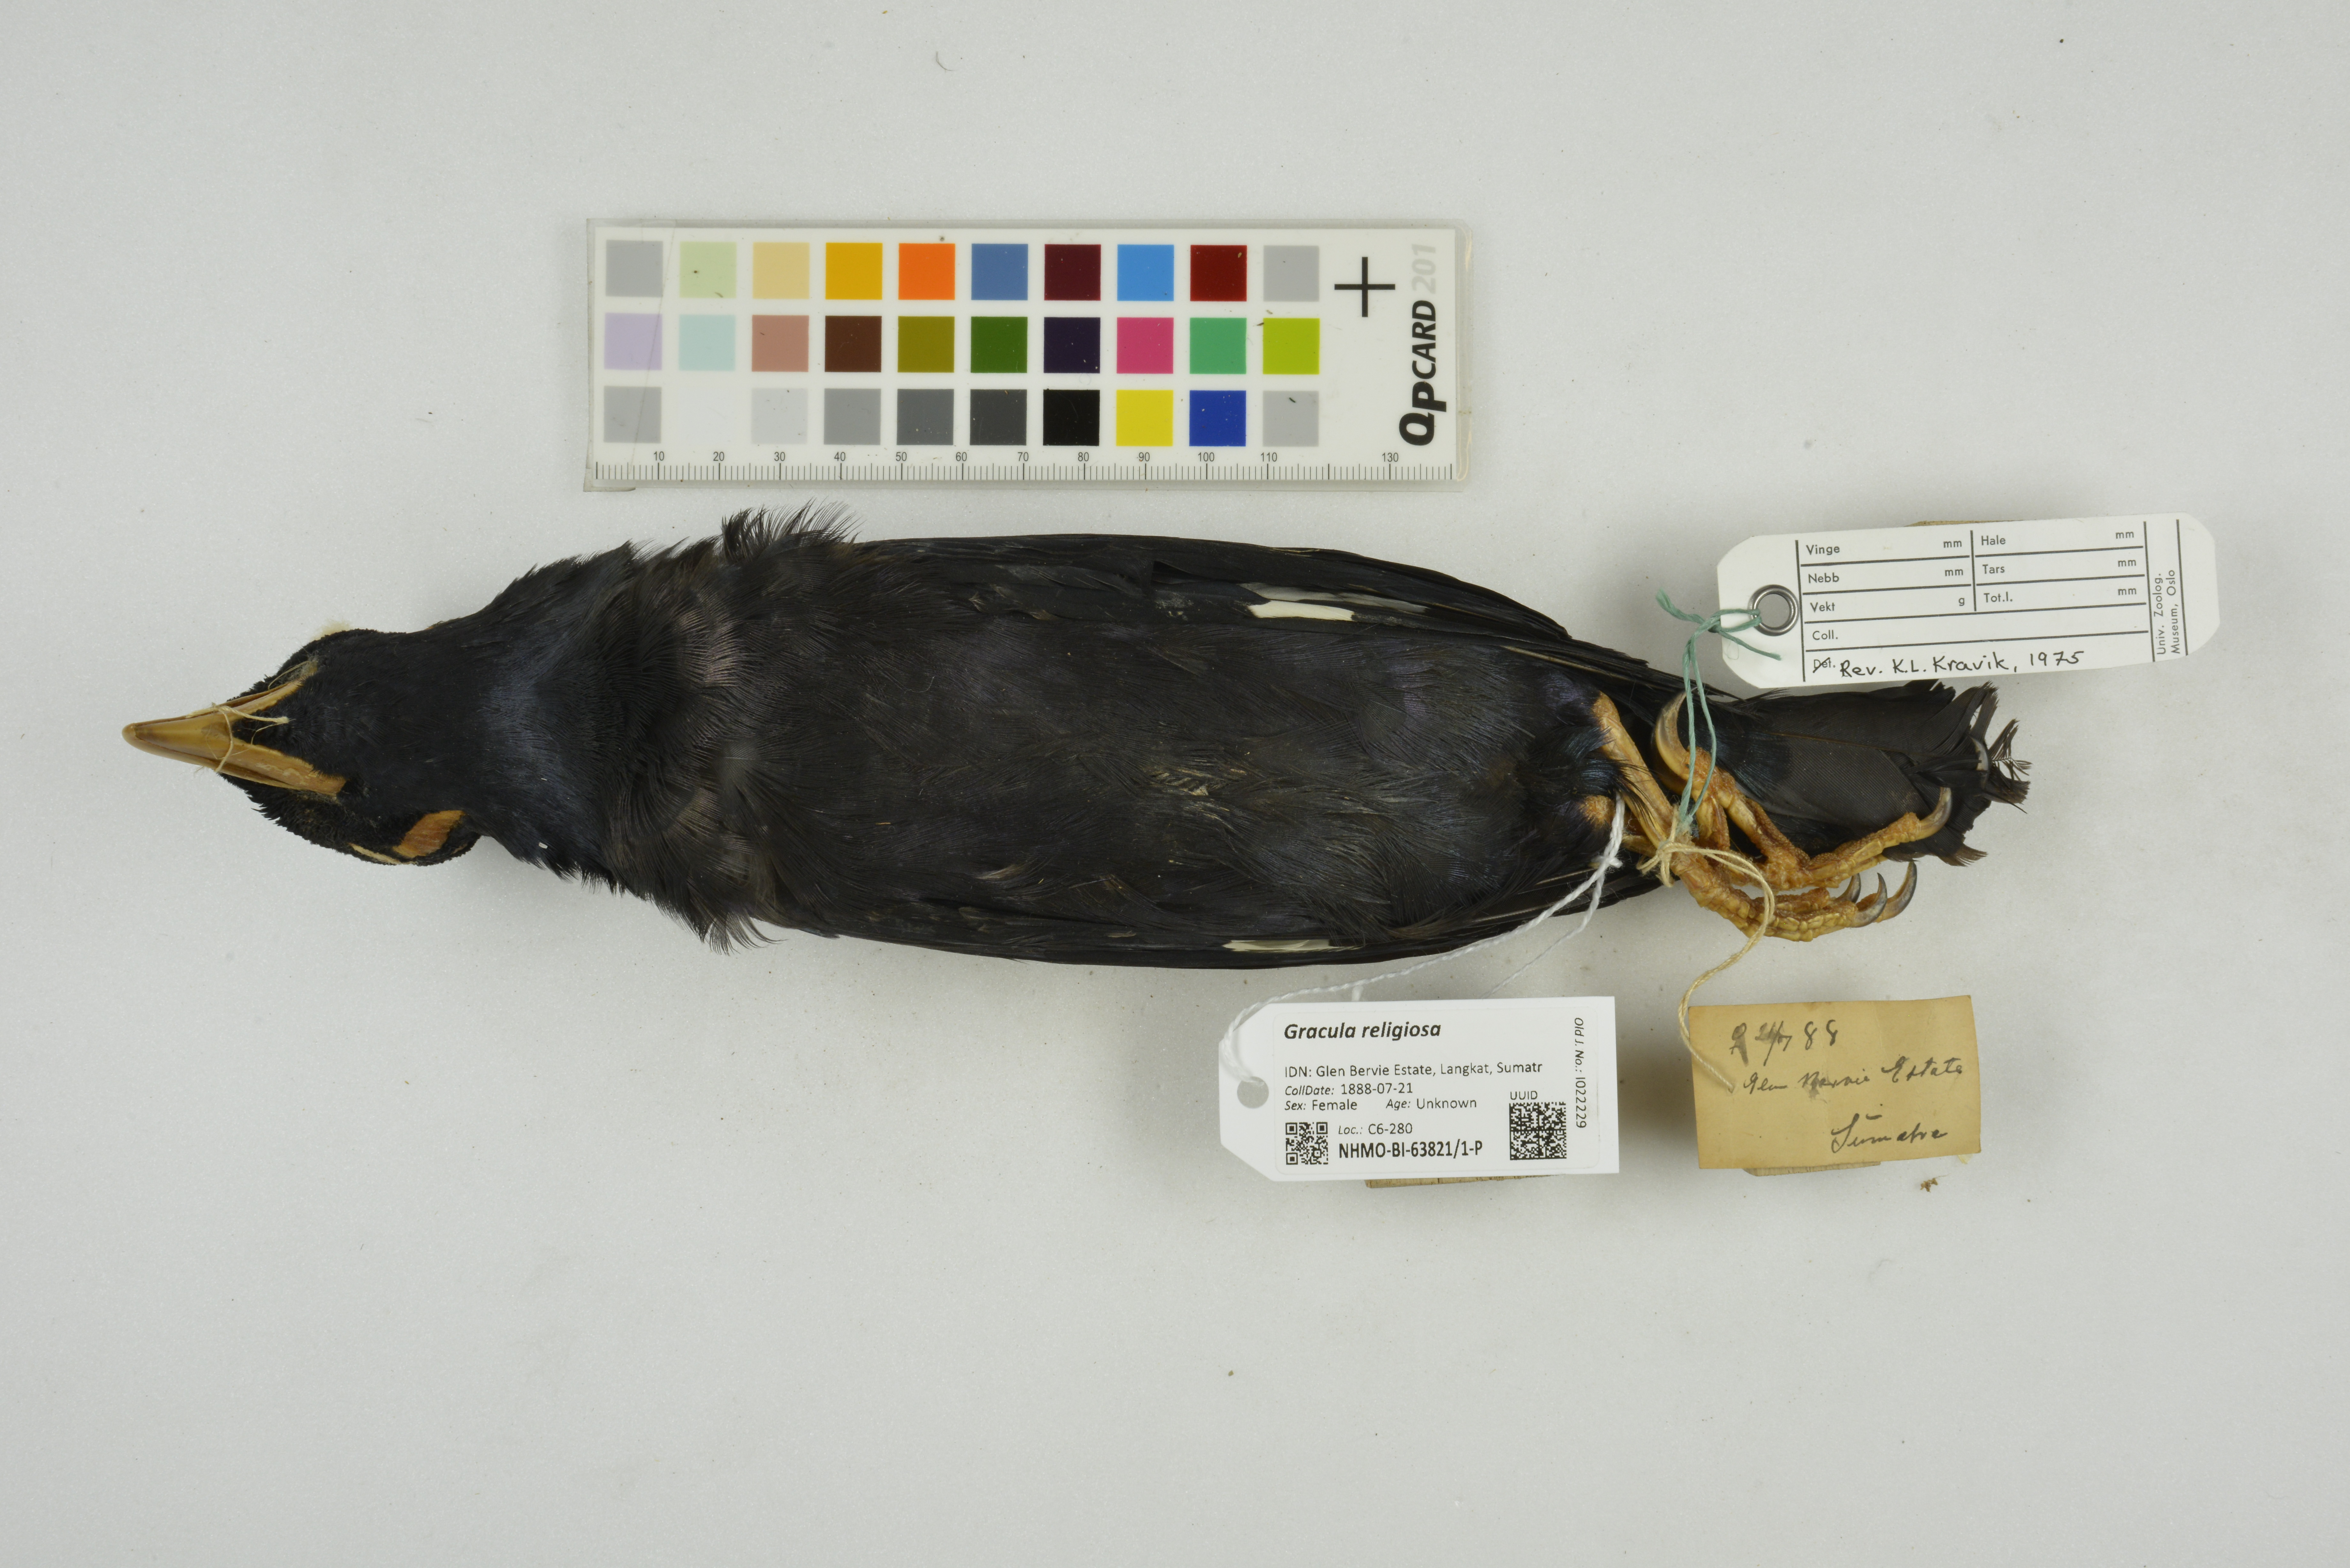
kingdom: Animalia
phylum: Chordata
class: Aves
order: Passeriformes
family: Sturnidae
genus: Gracula
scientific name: Gracula religiosa
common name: Common hill myna
